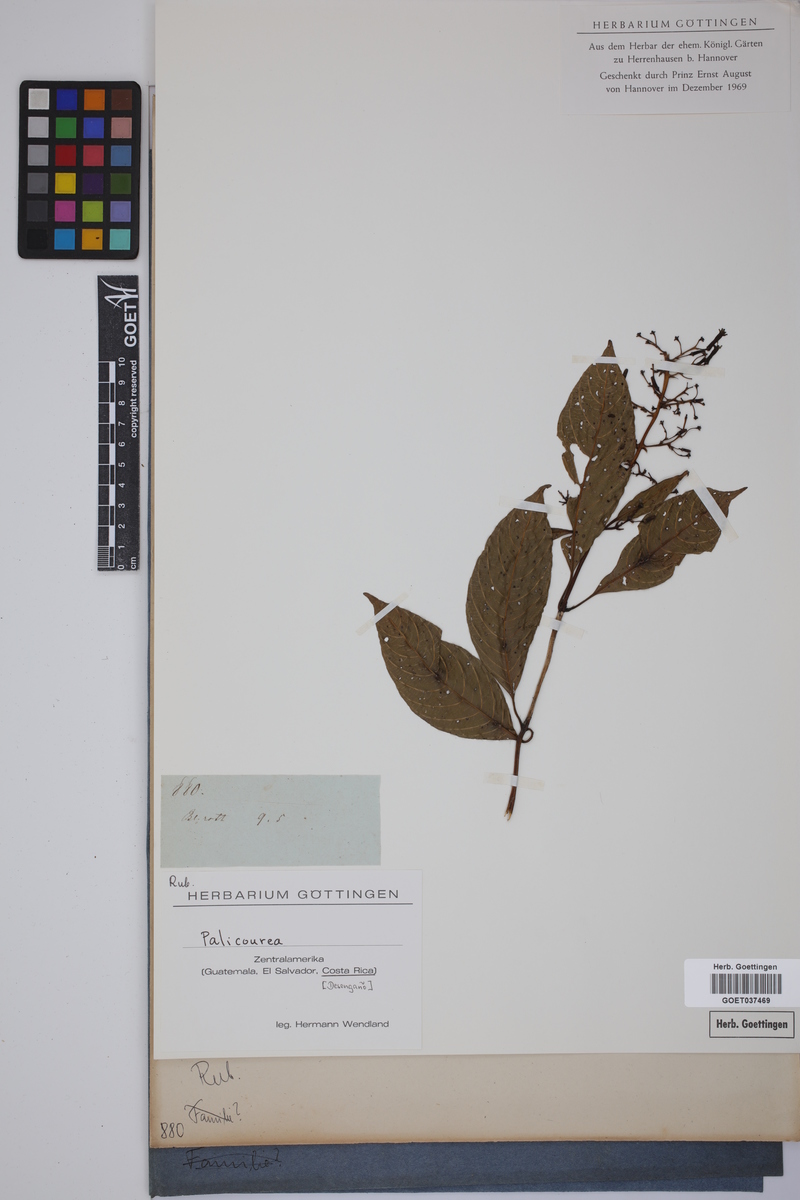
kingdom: Plantae
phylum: Tracheophyta
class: Magnoliopsida
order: Gentianales
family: Rubiaceae
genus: Palicourea
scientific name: Palicourea
